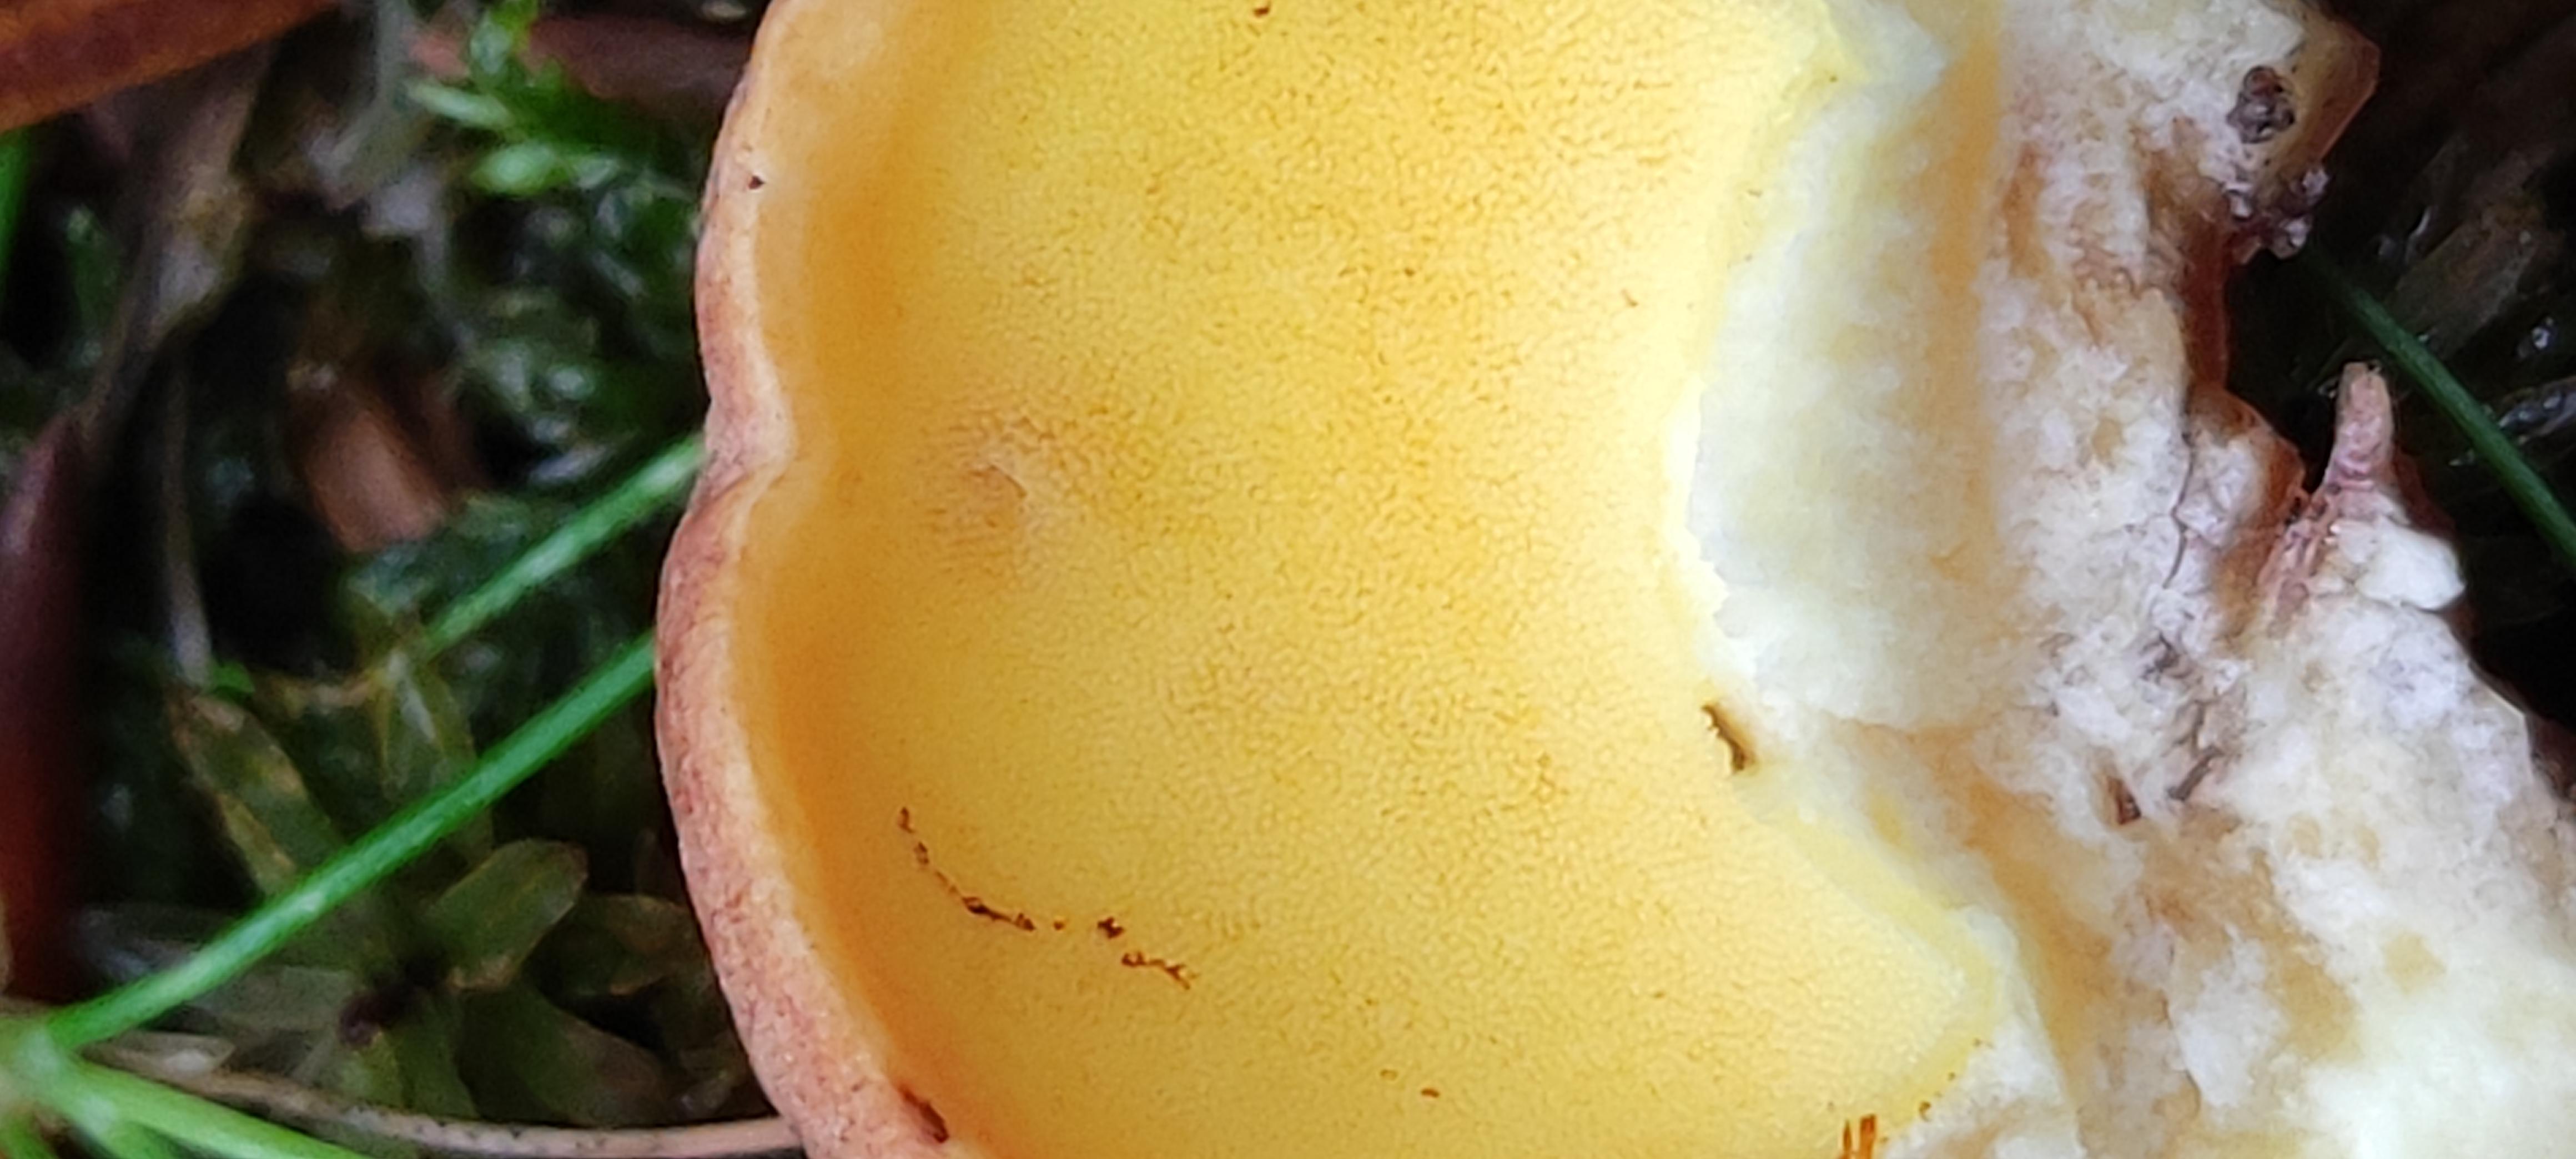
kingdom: Fungi
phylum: Basidiomycota
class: Agaricomycetes
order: Boletales
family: Boletaceae
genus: Butyriboletus
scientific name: Butyriboletus appendiculatus
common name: tenstokket rørhat
